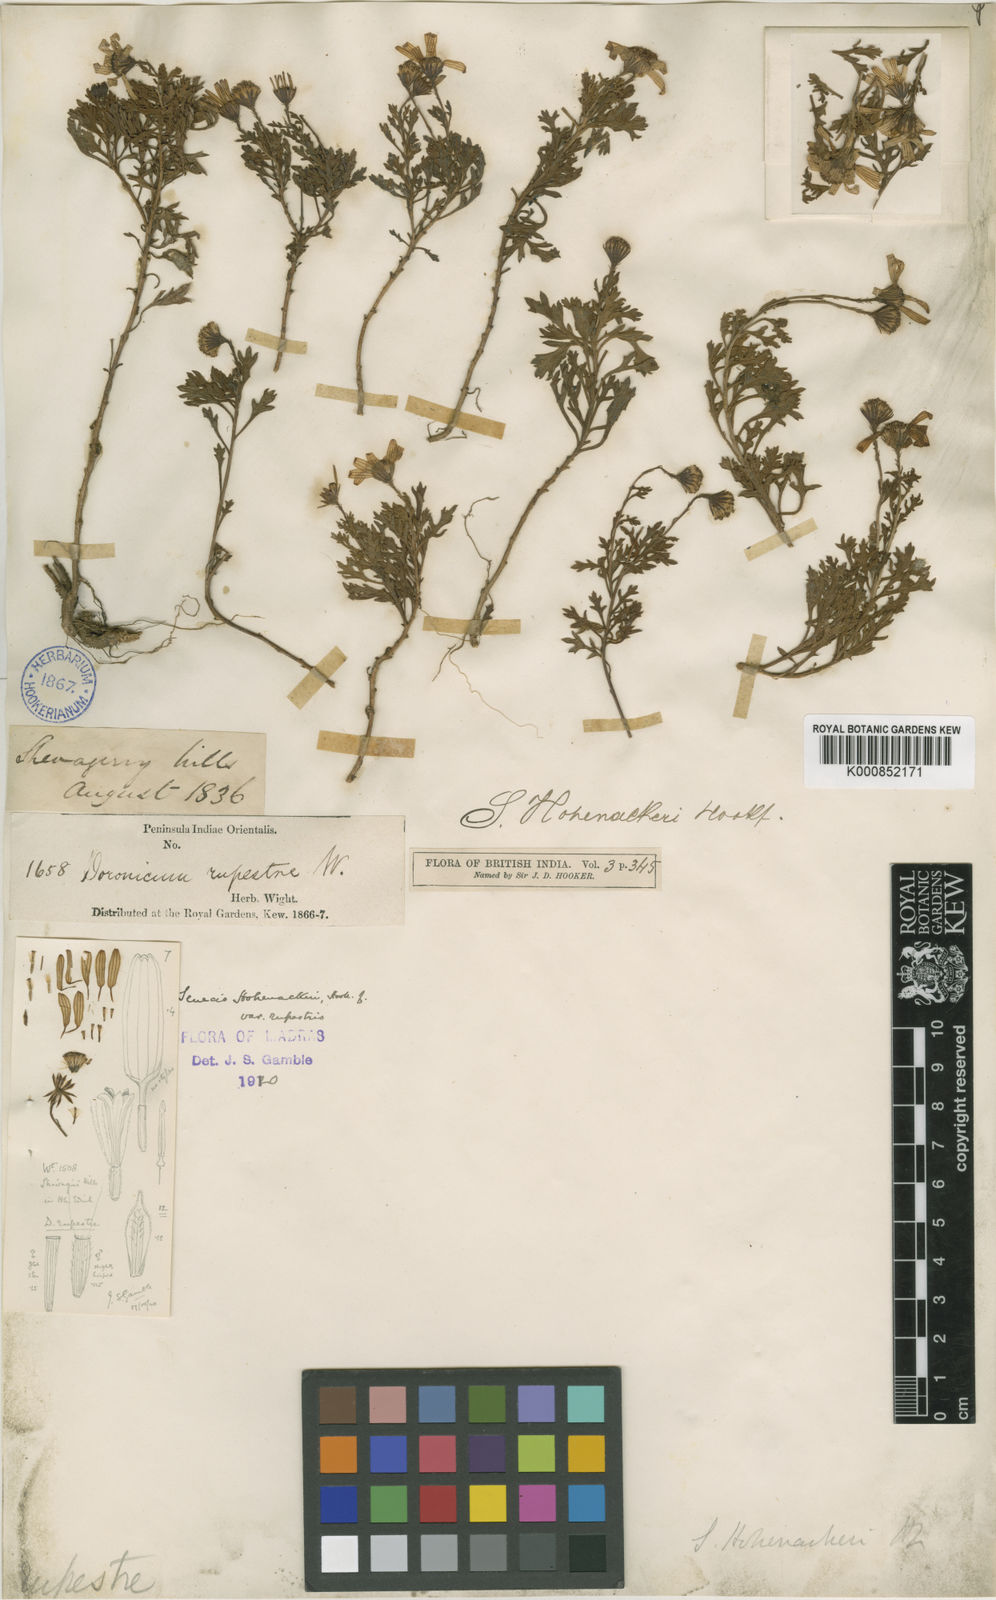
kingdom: Plantae
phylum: Tracheophyta
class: Magnoliopsida
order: Asterales
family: Asteraceae
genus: Senecio
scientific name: Senecio madrasensis
